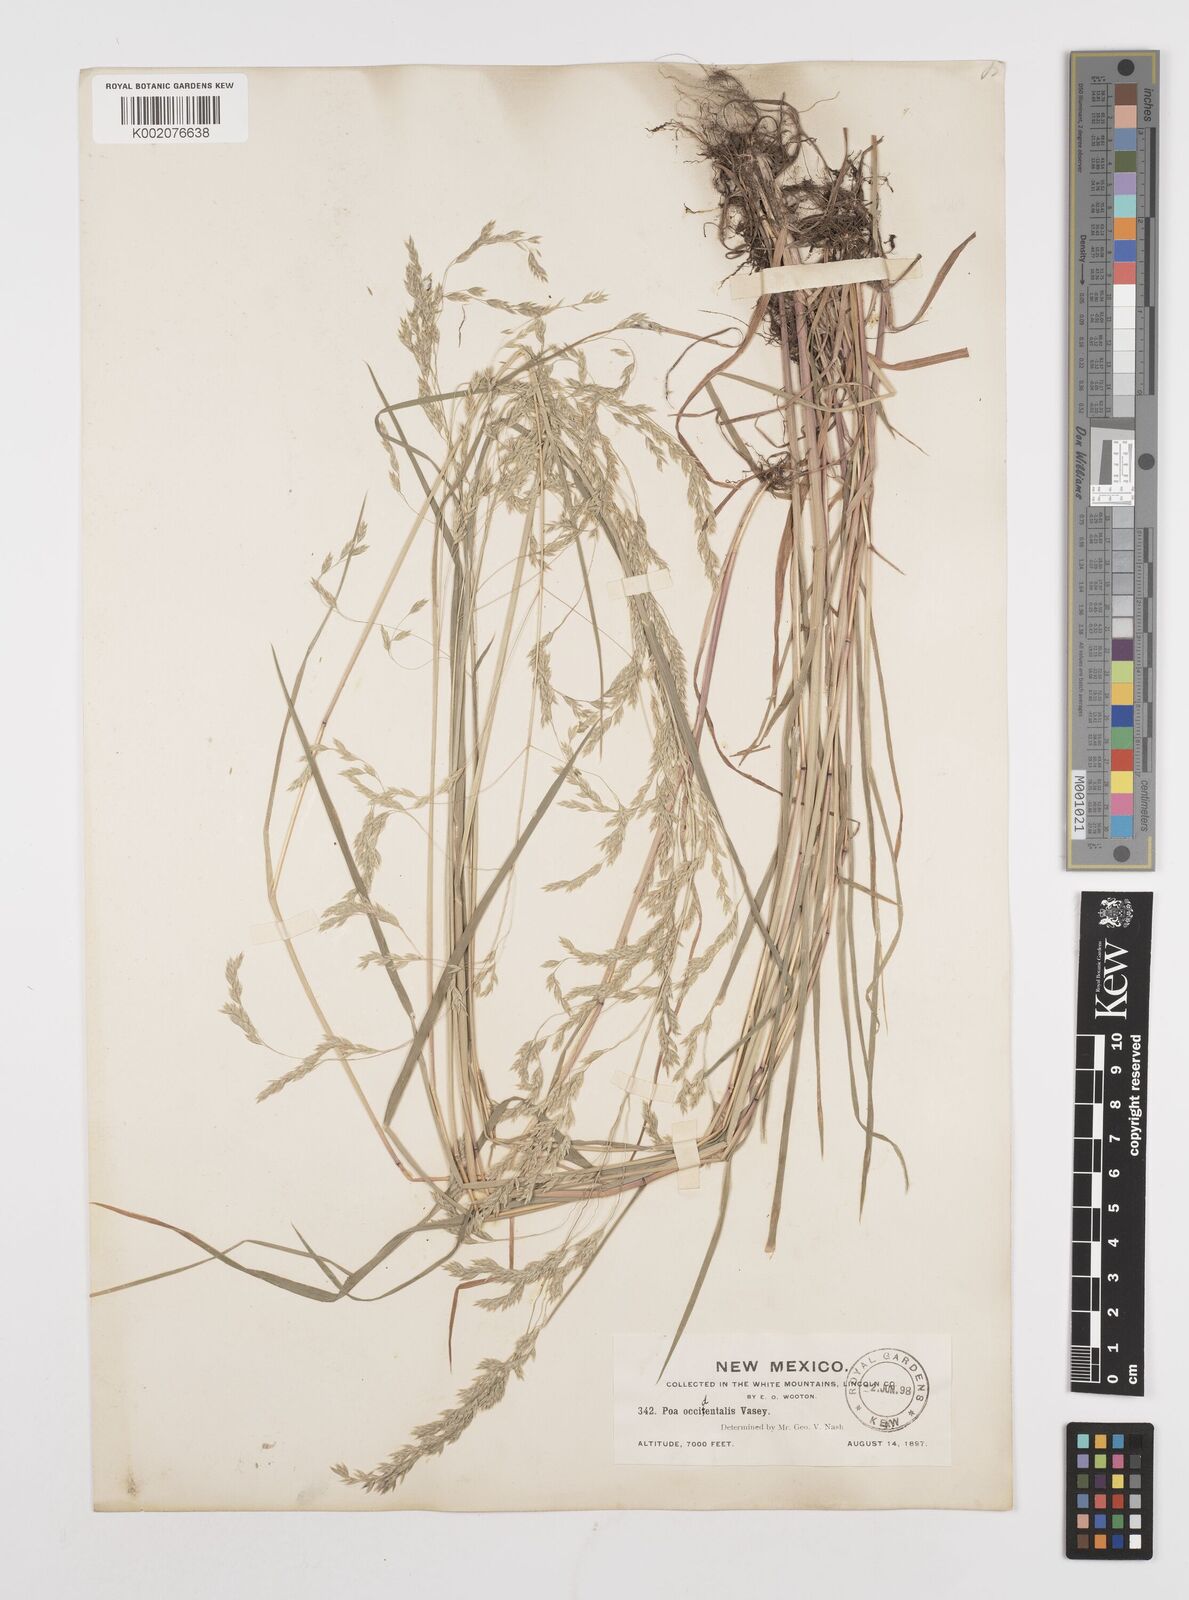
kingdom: Plantae
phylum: Tracheophyta
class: Liliopsida
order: Poales
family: Poaceae
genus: Poa
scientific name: Poa occidentalis
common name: New mexican bluegrass
